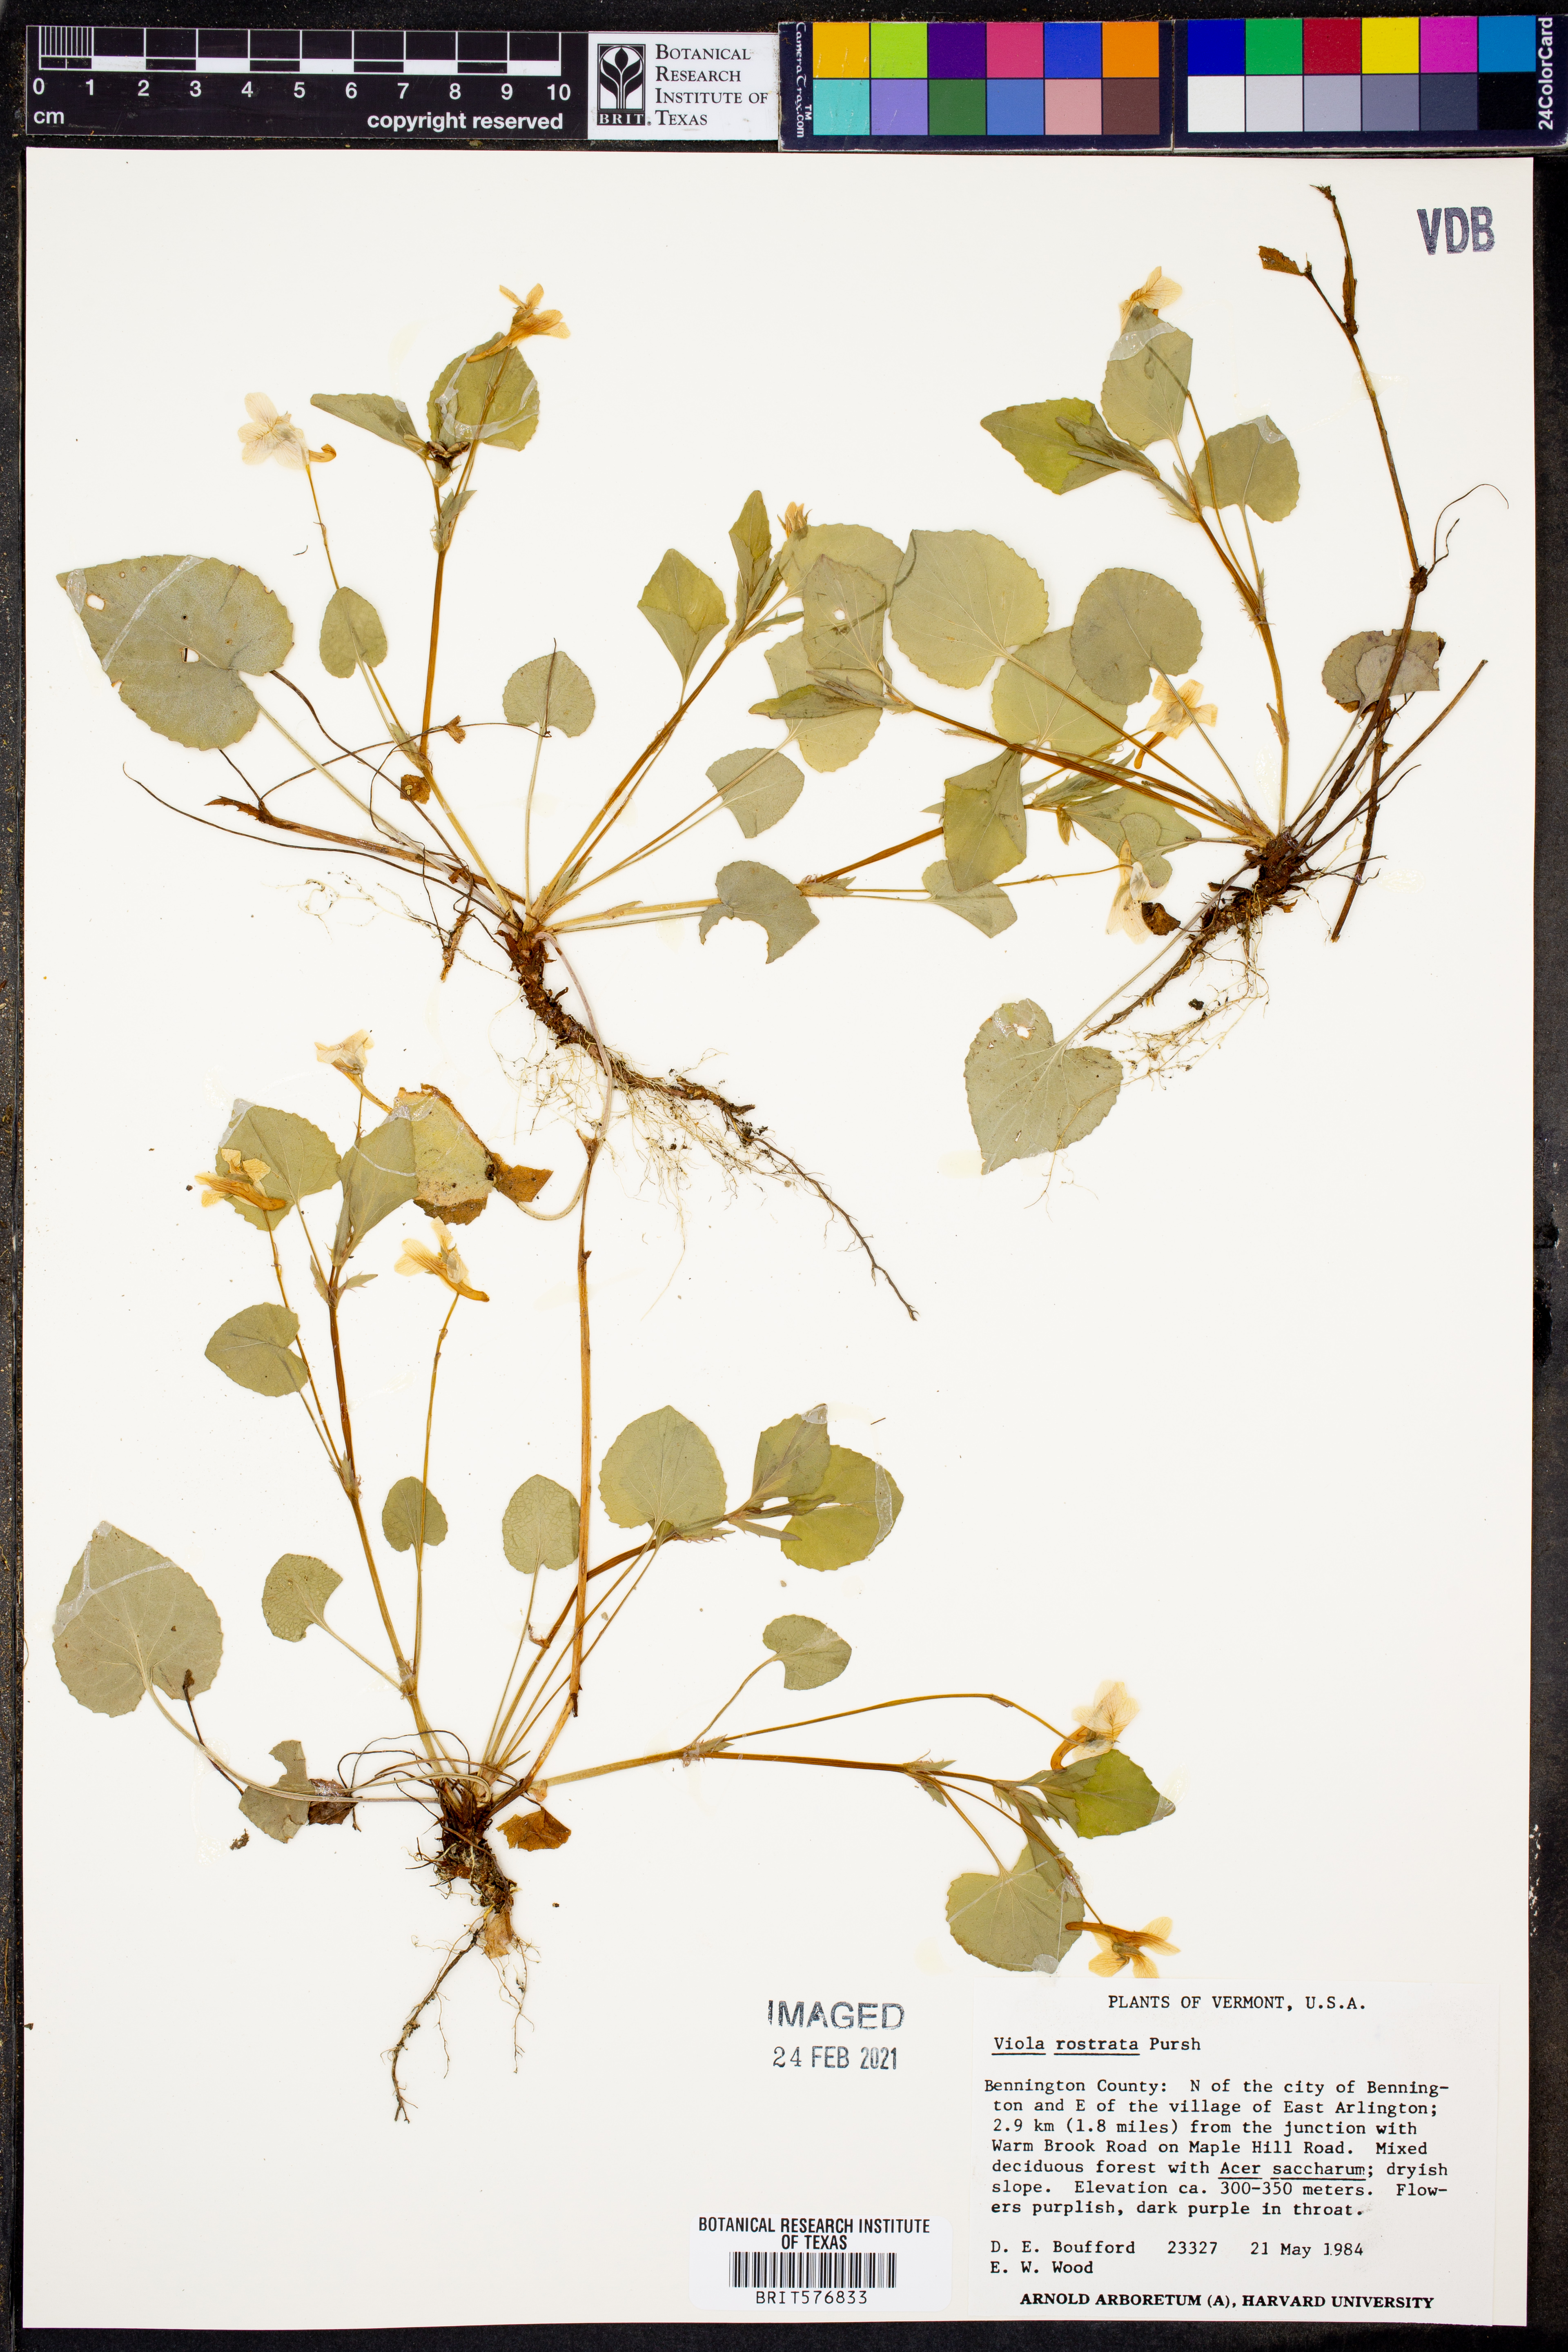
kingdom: Plantae
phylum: Tracheophyta
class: Magnoliopsida
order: Malpighiales
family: Violaceae
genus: Viola
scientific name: Viola rostrata
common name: Long-spur violet
